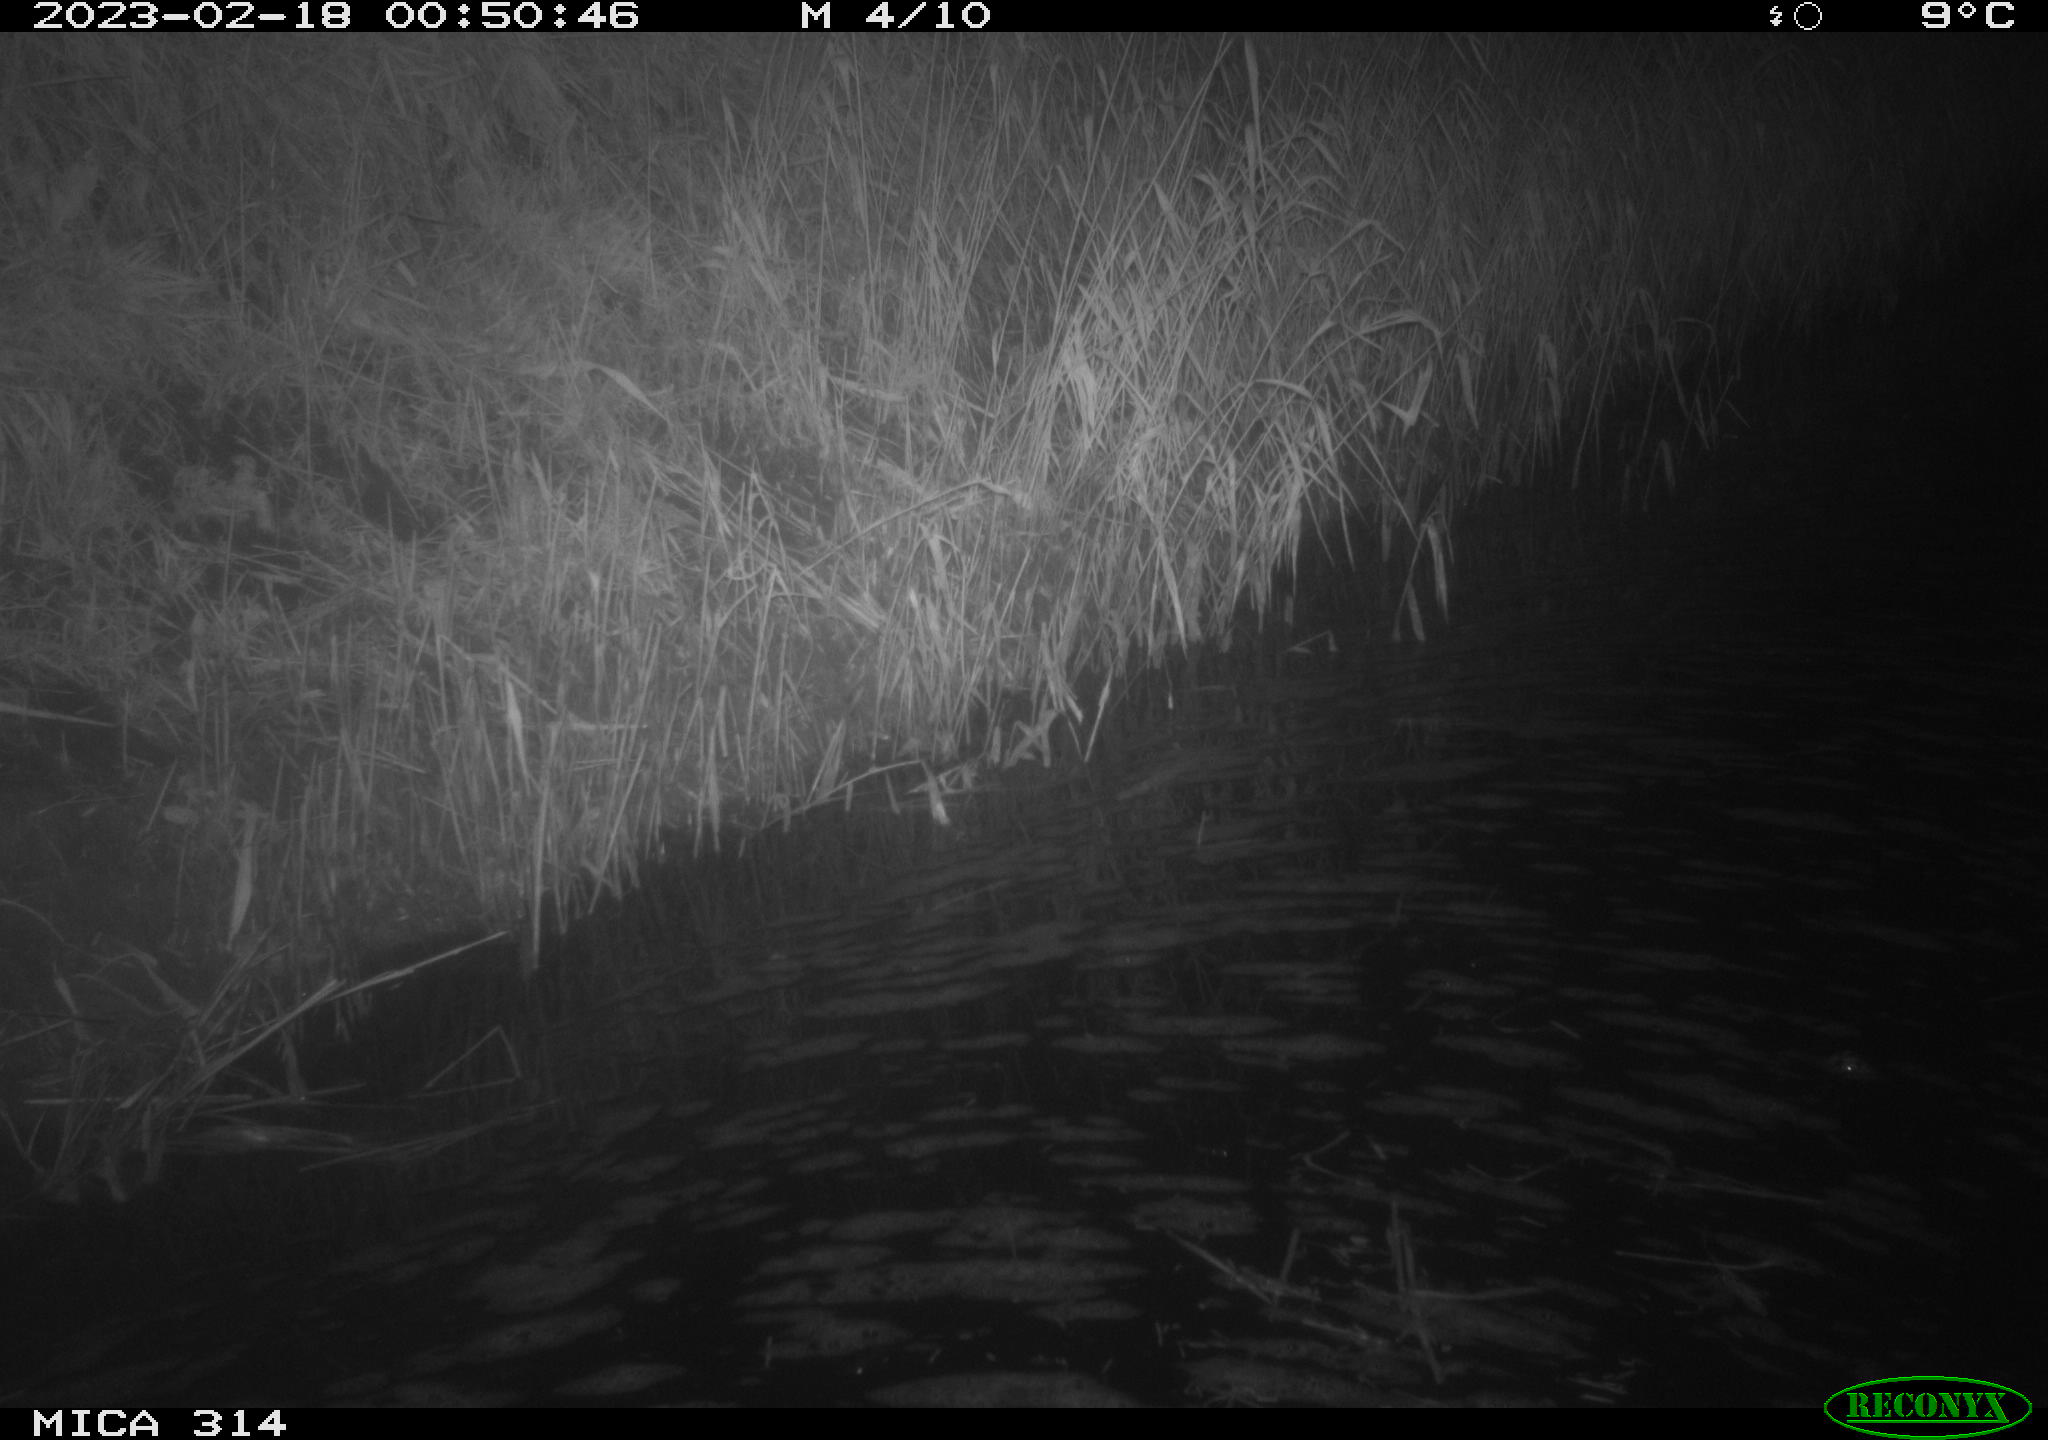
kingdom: Animalia
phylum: Chordata
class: Mammalia
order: Rodentia
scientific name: Rodentia
